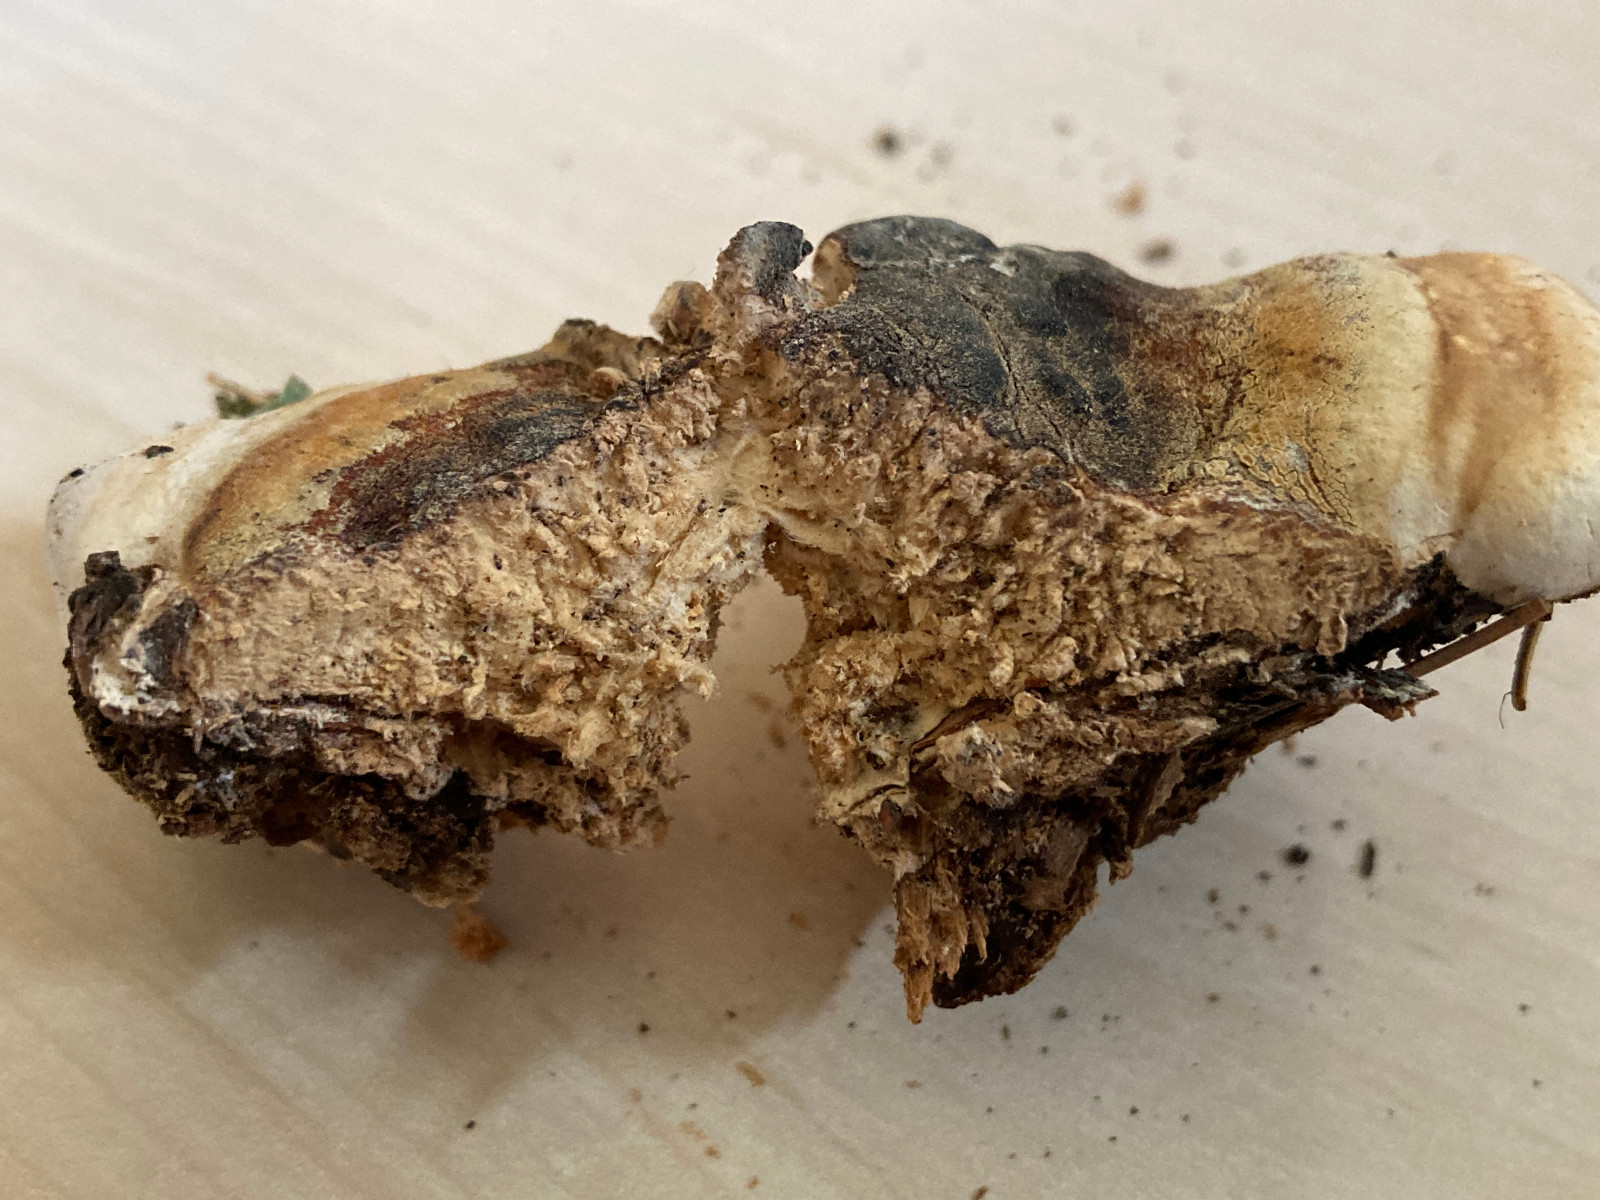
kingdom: Fungi
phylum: Basidiomycota
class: Agaricomycetes
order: Polyporales
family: Fomitopsidaceae
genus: Fomitopsis
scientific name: Fomitopsis pinicola
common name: randbæltet hovporesvamp
